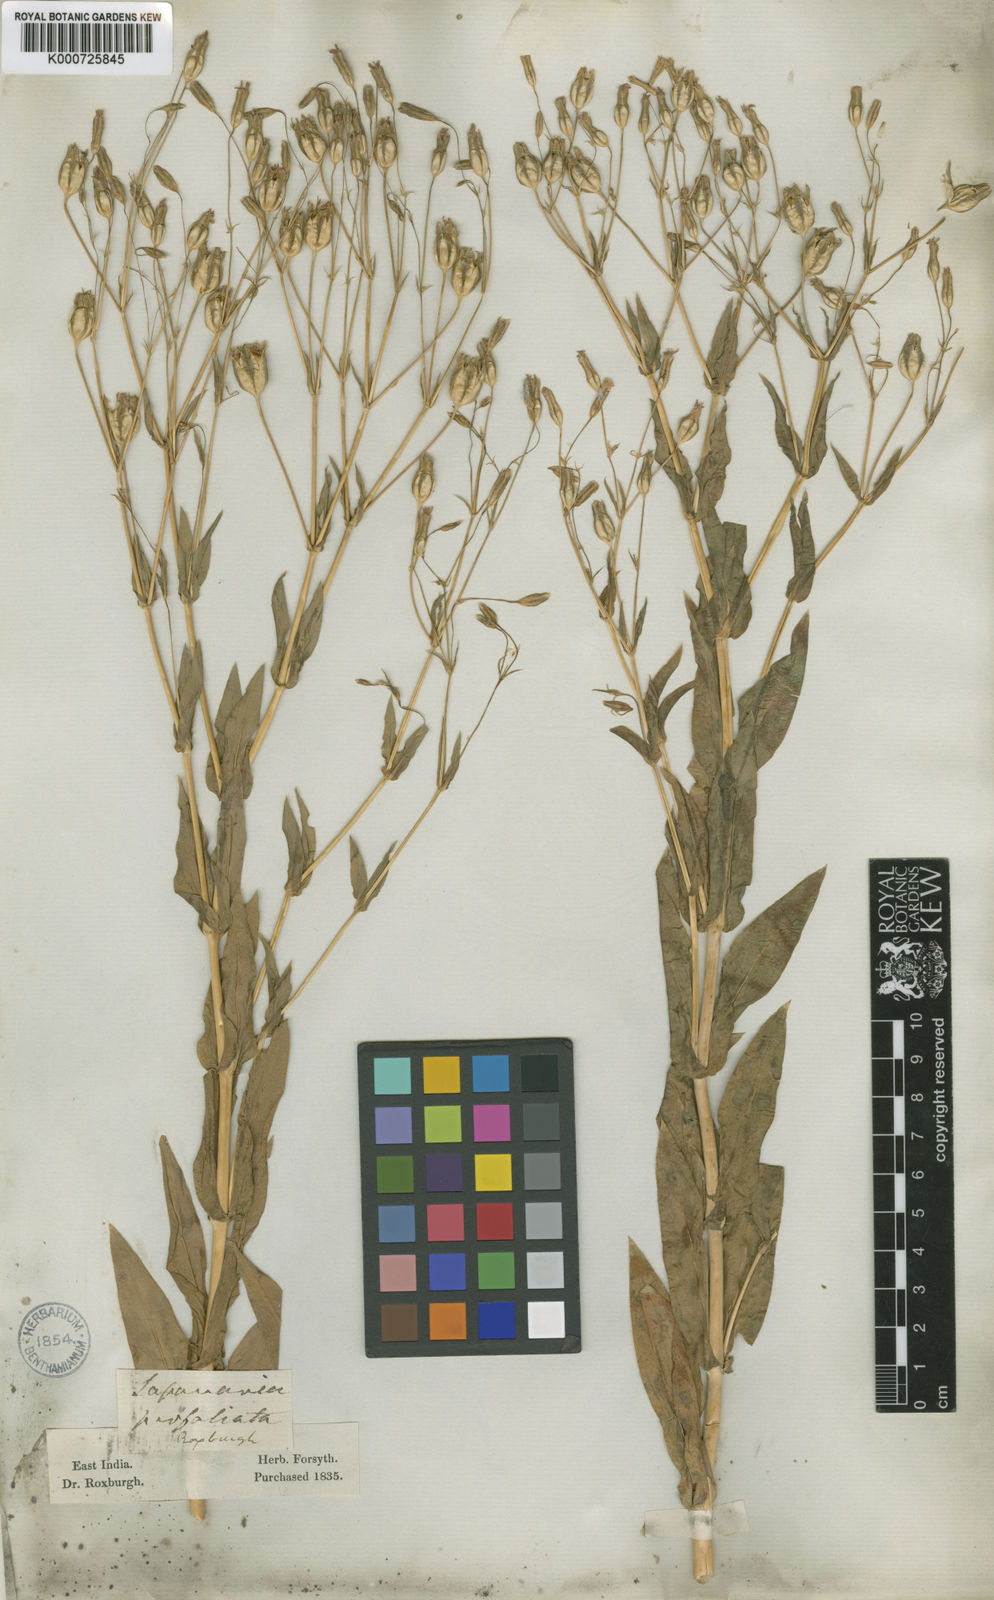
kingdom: Plantae
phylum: Tracheophyta
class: Magnoliopsida
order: Caryophyllales
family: Caryophyllaceae
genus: Gypsophila
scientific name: Gypsophila vaccaria
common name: Cow soapwort
